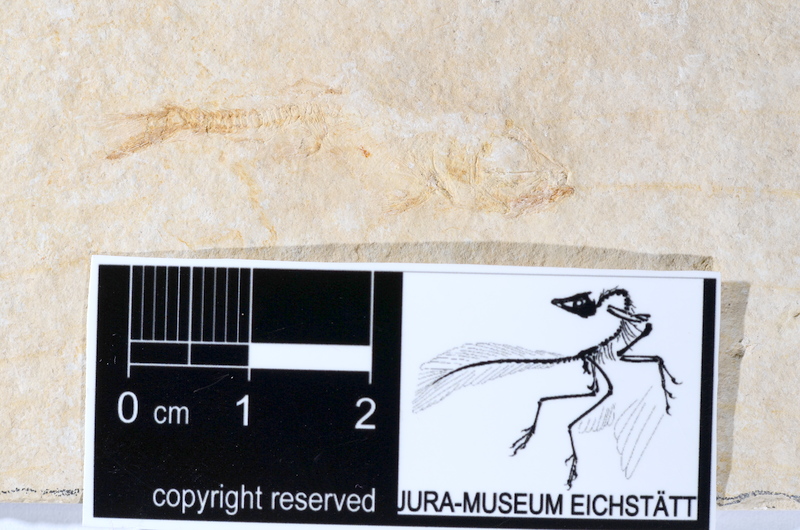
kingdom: Animalia
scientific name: Animalia
